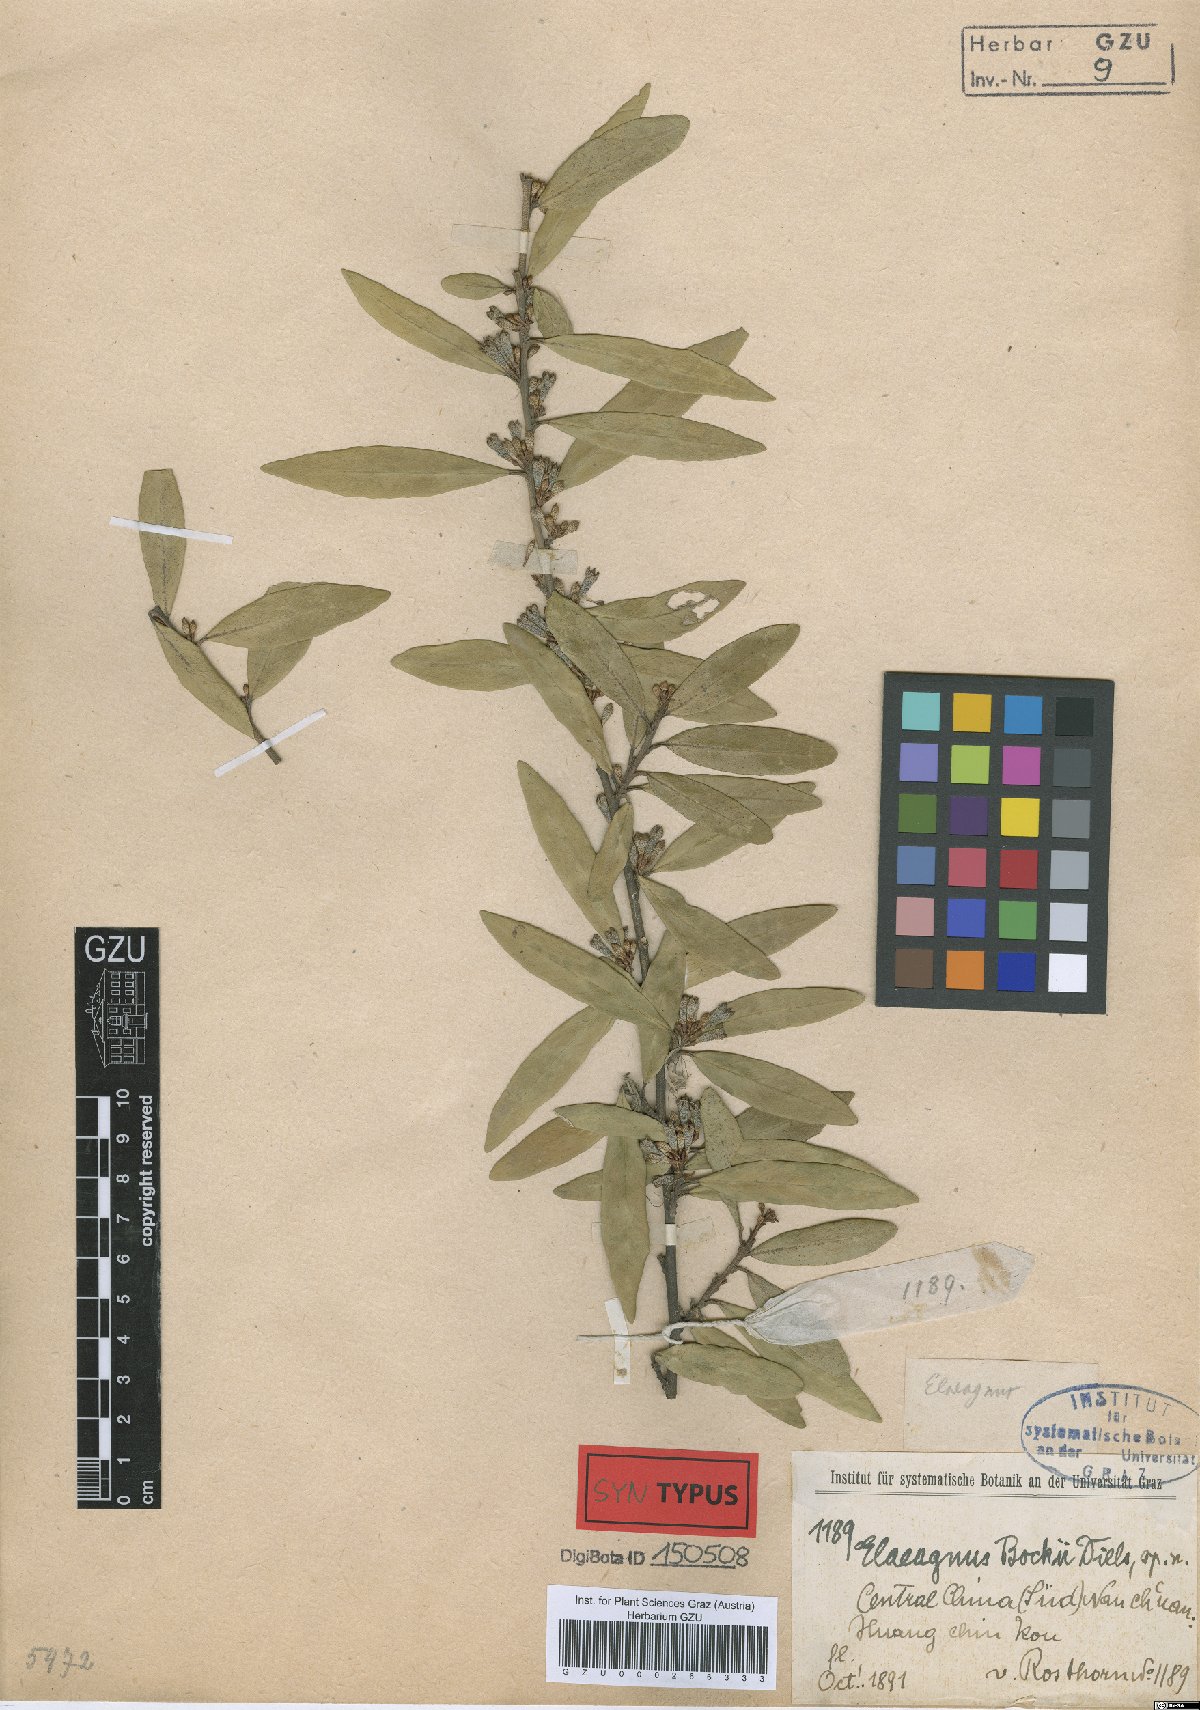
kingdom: Plantae
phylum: Tracheophyta
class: Magnoliopsida
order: Rosales
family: Elaeagnaceae
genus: Elaeagnus
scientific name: Elaeagnus bockii
